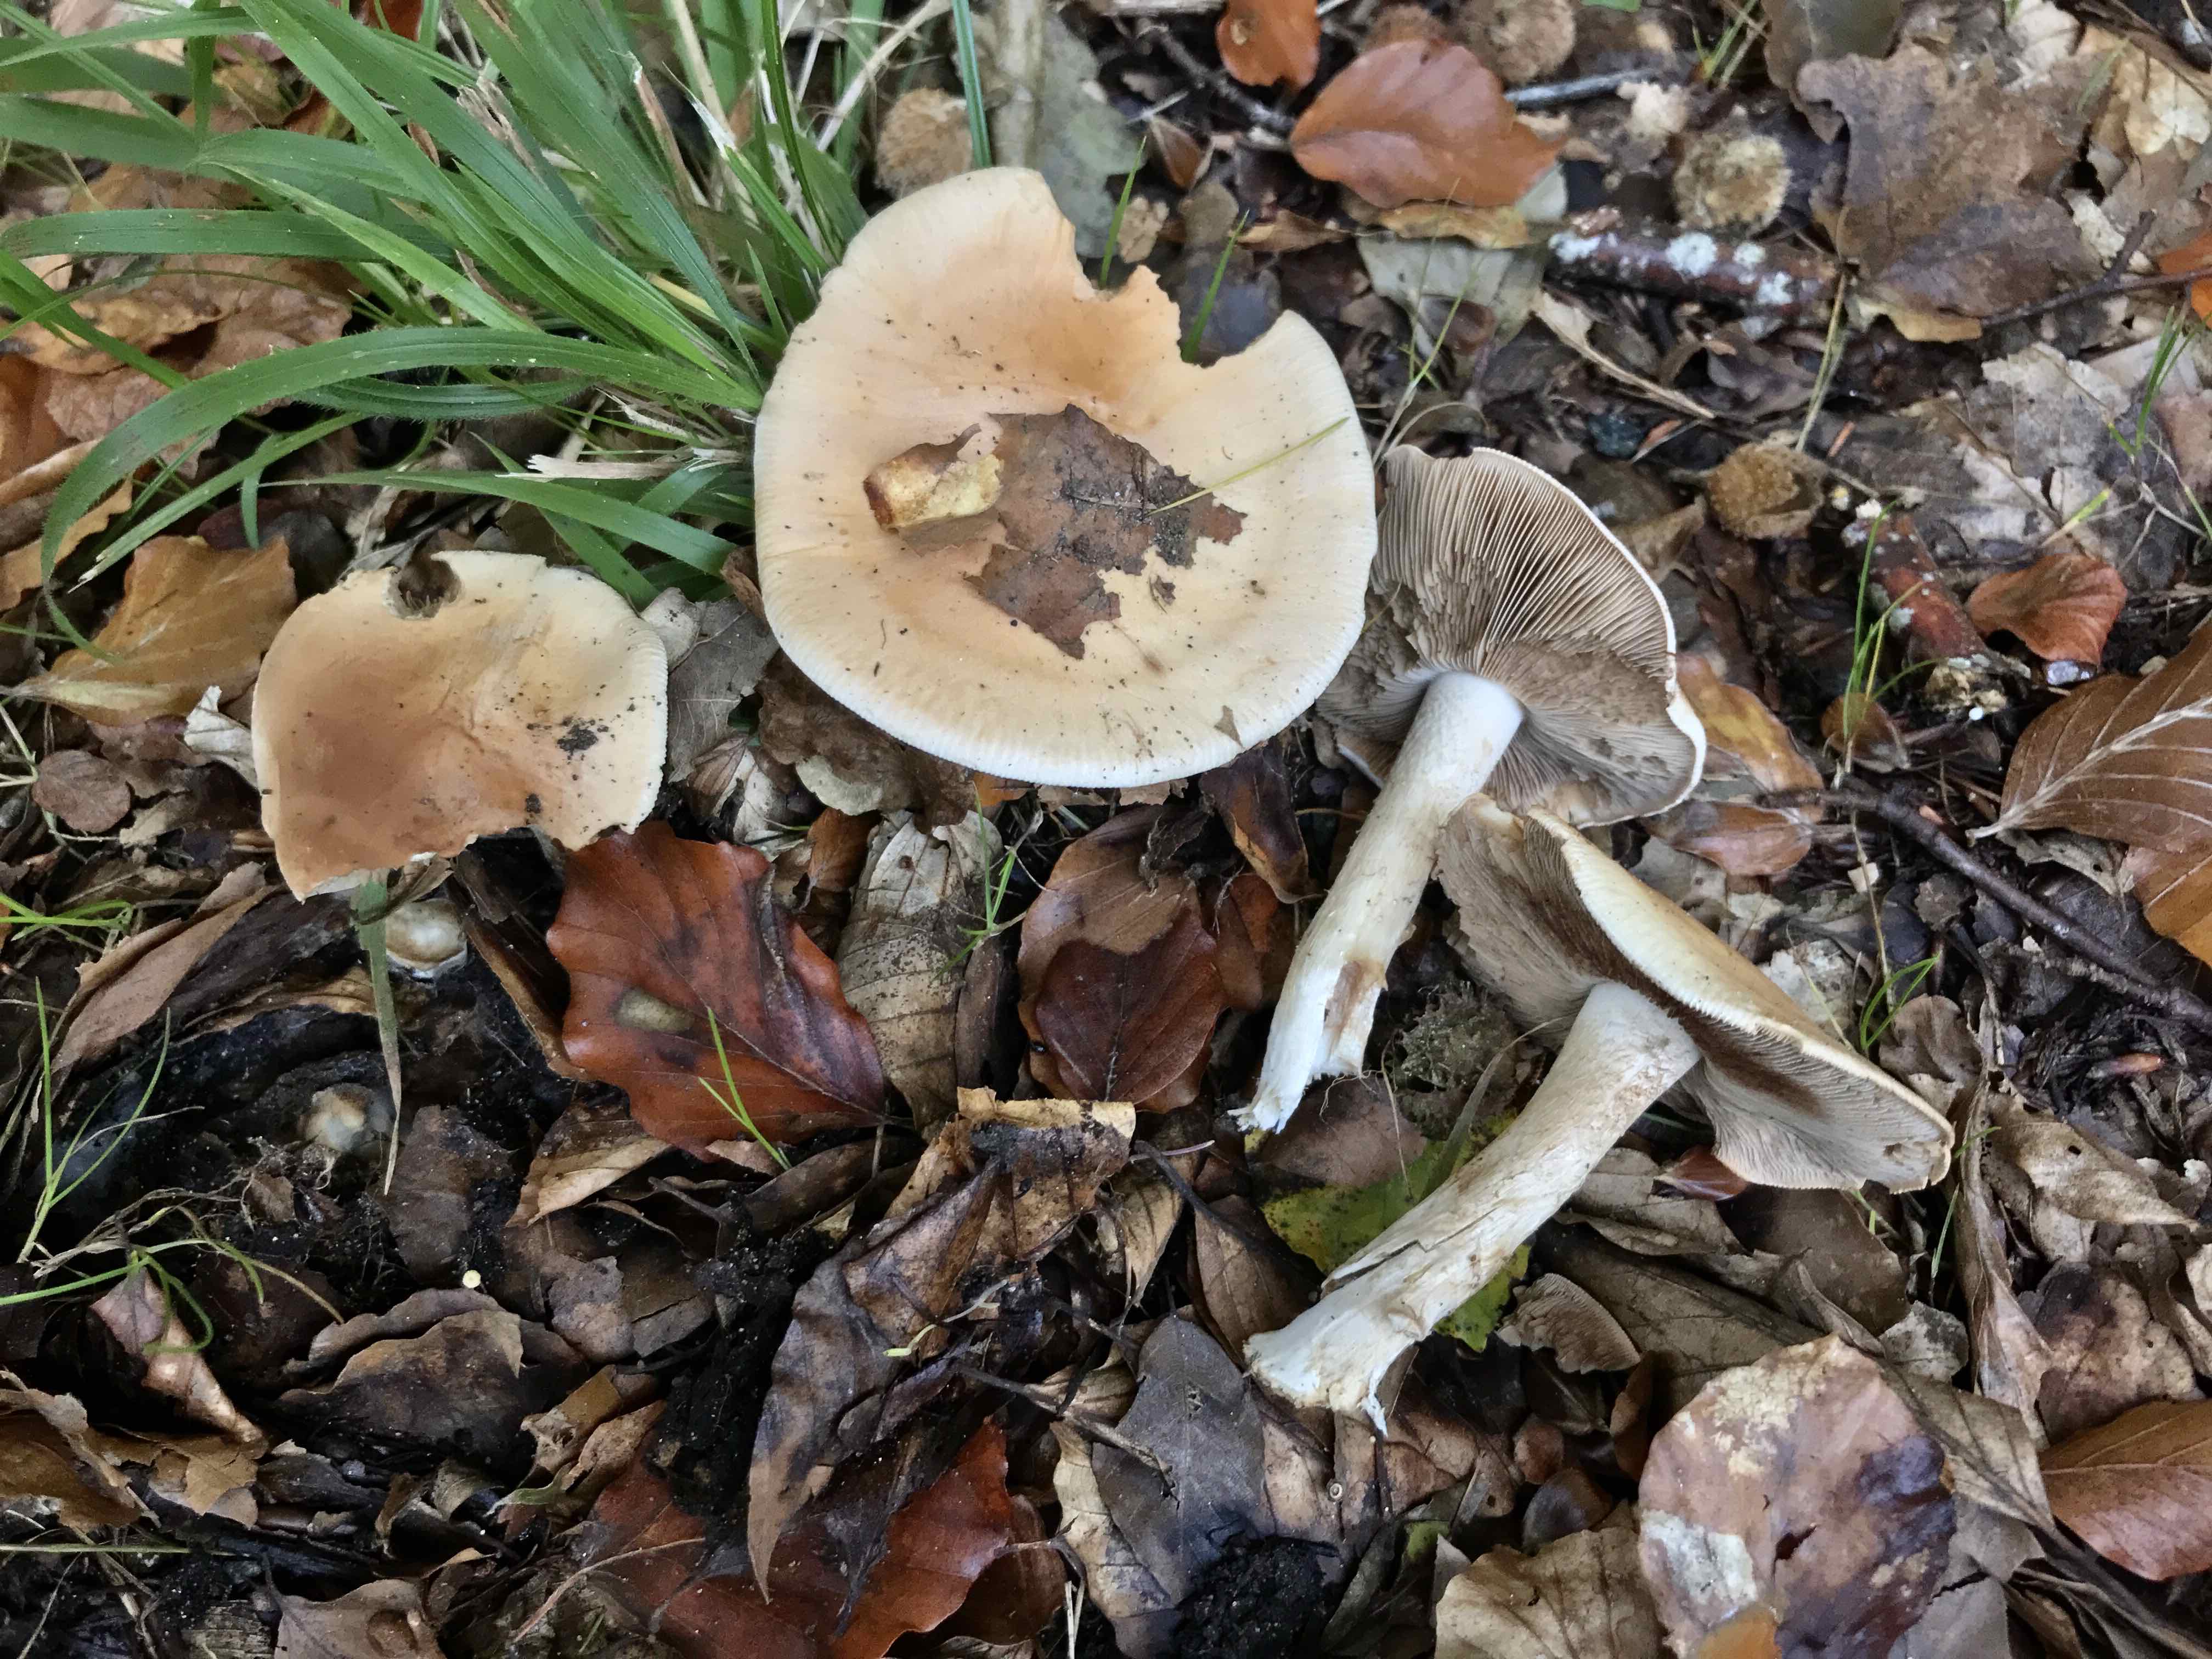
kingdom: Fungi
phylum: Basidiomycota
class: Agaricomycetes
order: Agaricales
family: Hymenogastraceae
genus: Hebeloma
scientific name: Hebeloma sinapizans
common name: ræddike-tåreblad
